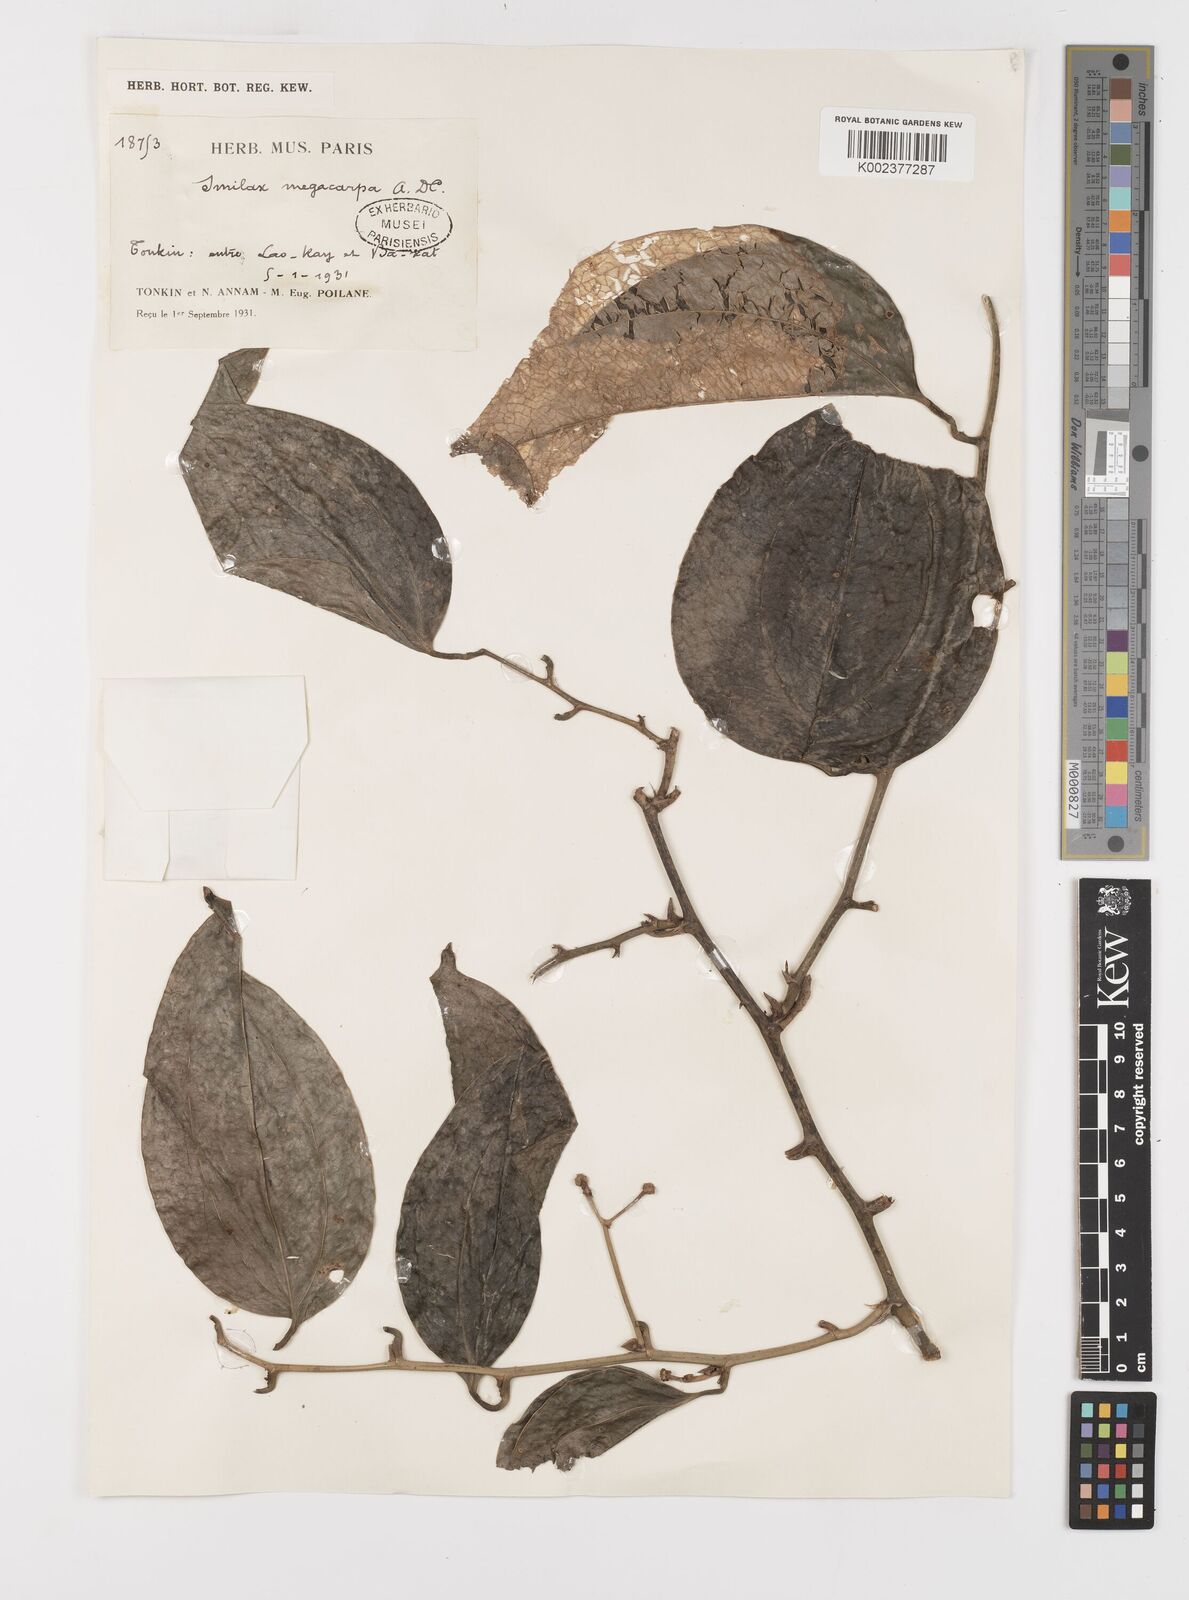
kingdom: Plantae
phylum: Tracheophyta
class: Liliopsida
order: Liliales
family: Smilacaceae
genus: Smilax
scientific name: Smilax megacarpa
